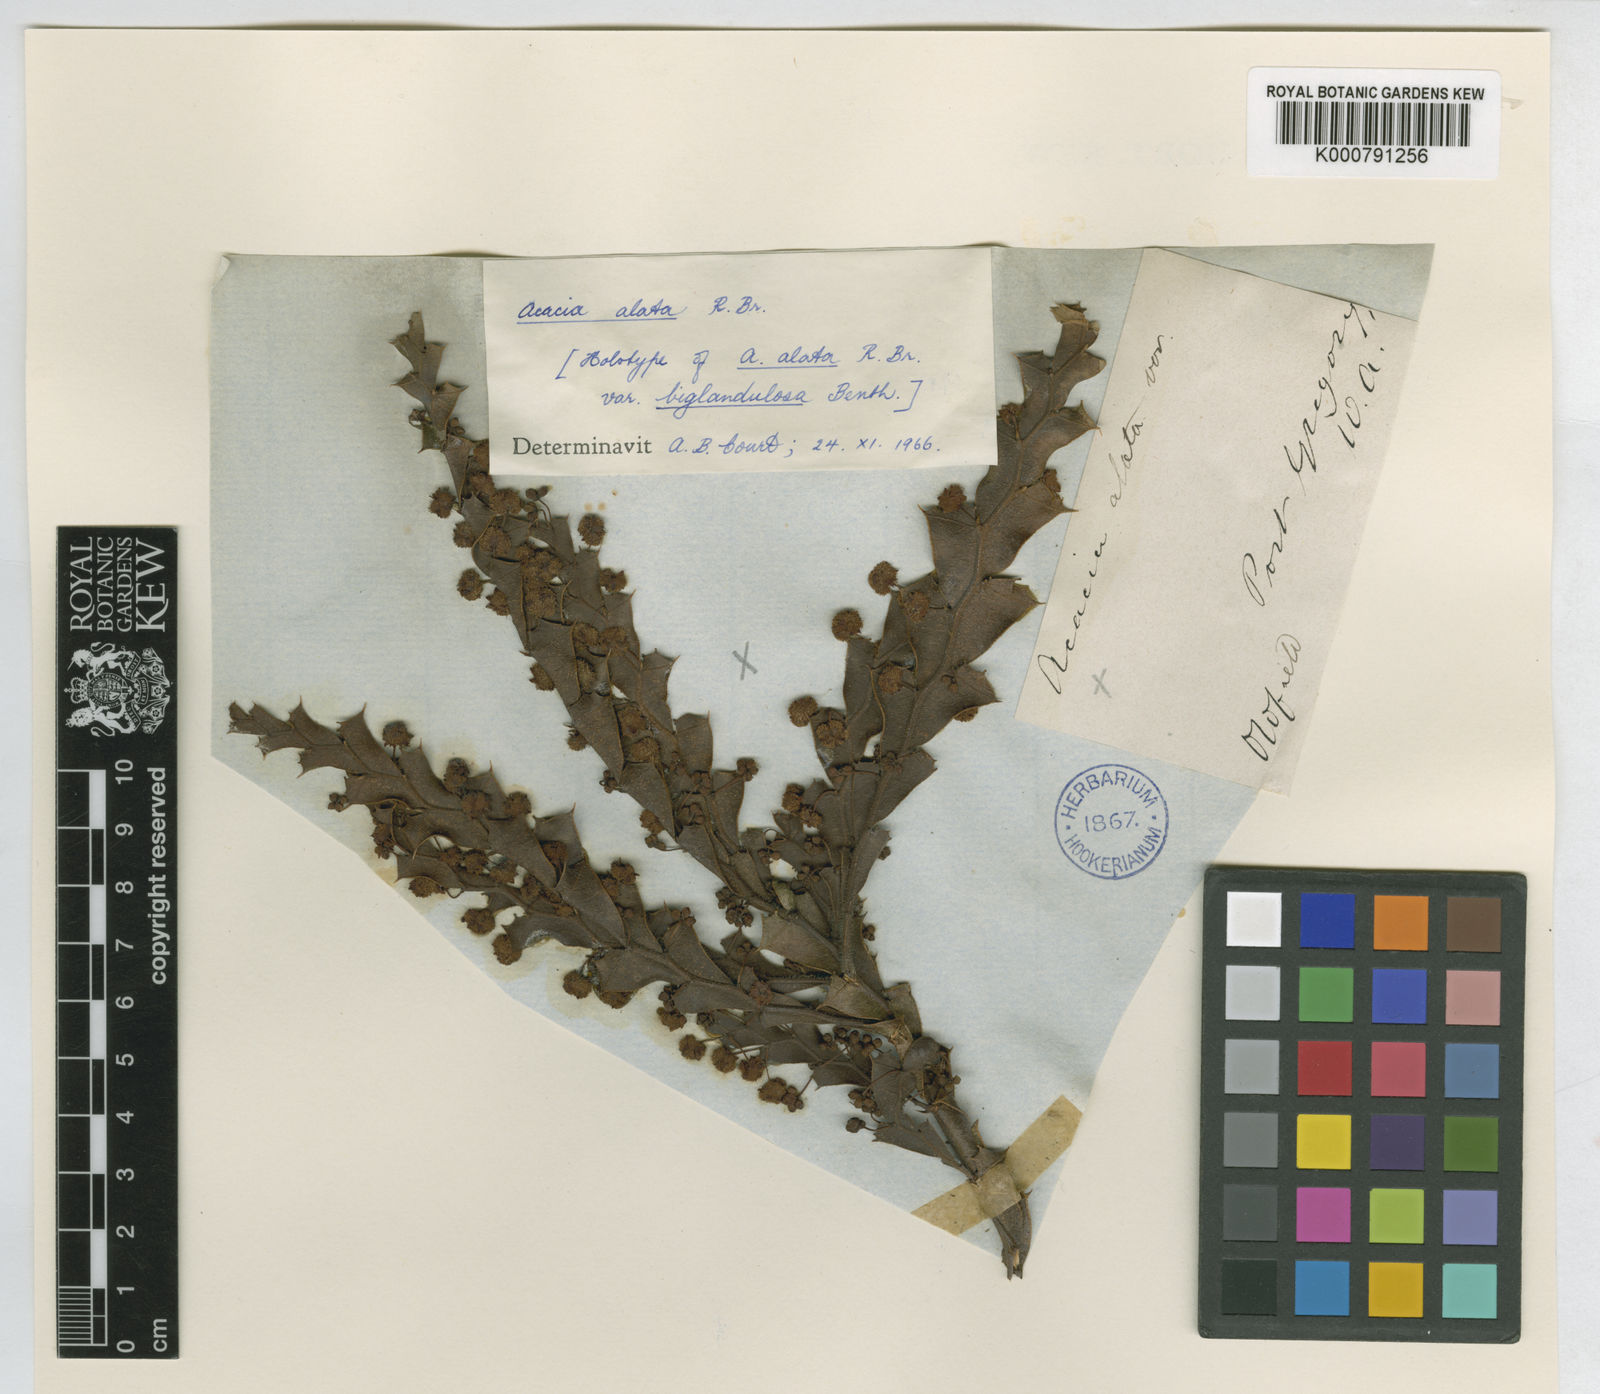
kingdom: Plantae
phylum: Tracheophyta
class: Magnoliopsida
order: Fabales
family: Fabaceae
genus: Acacia
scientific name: Acacia alata
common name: Winged wattle
